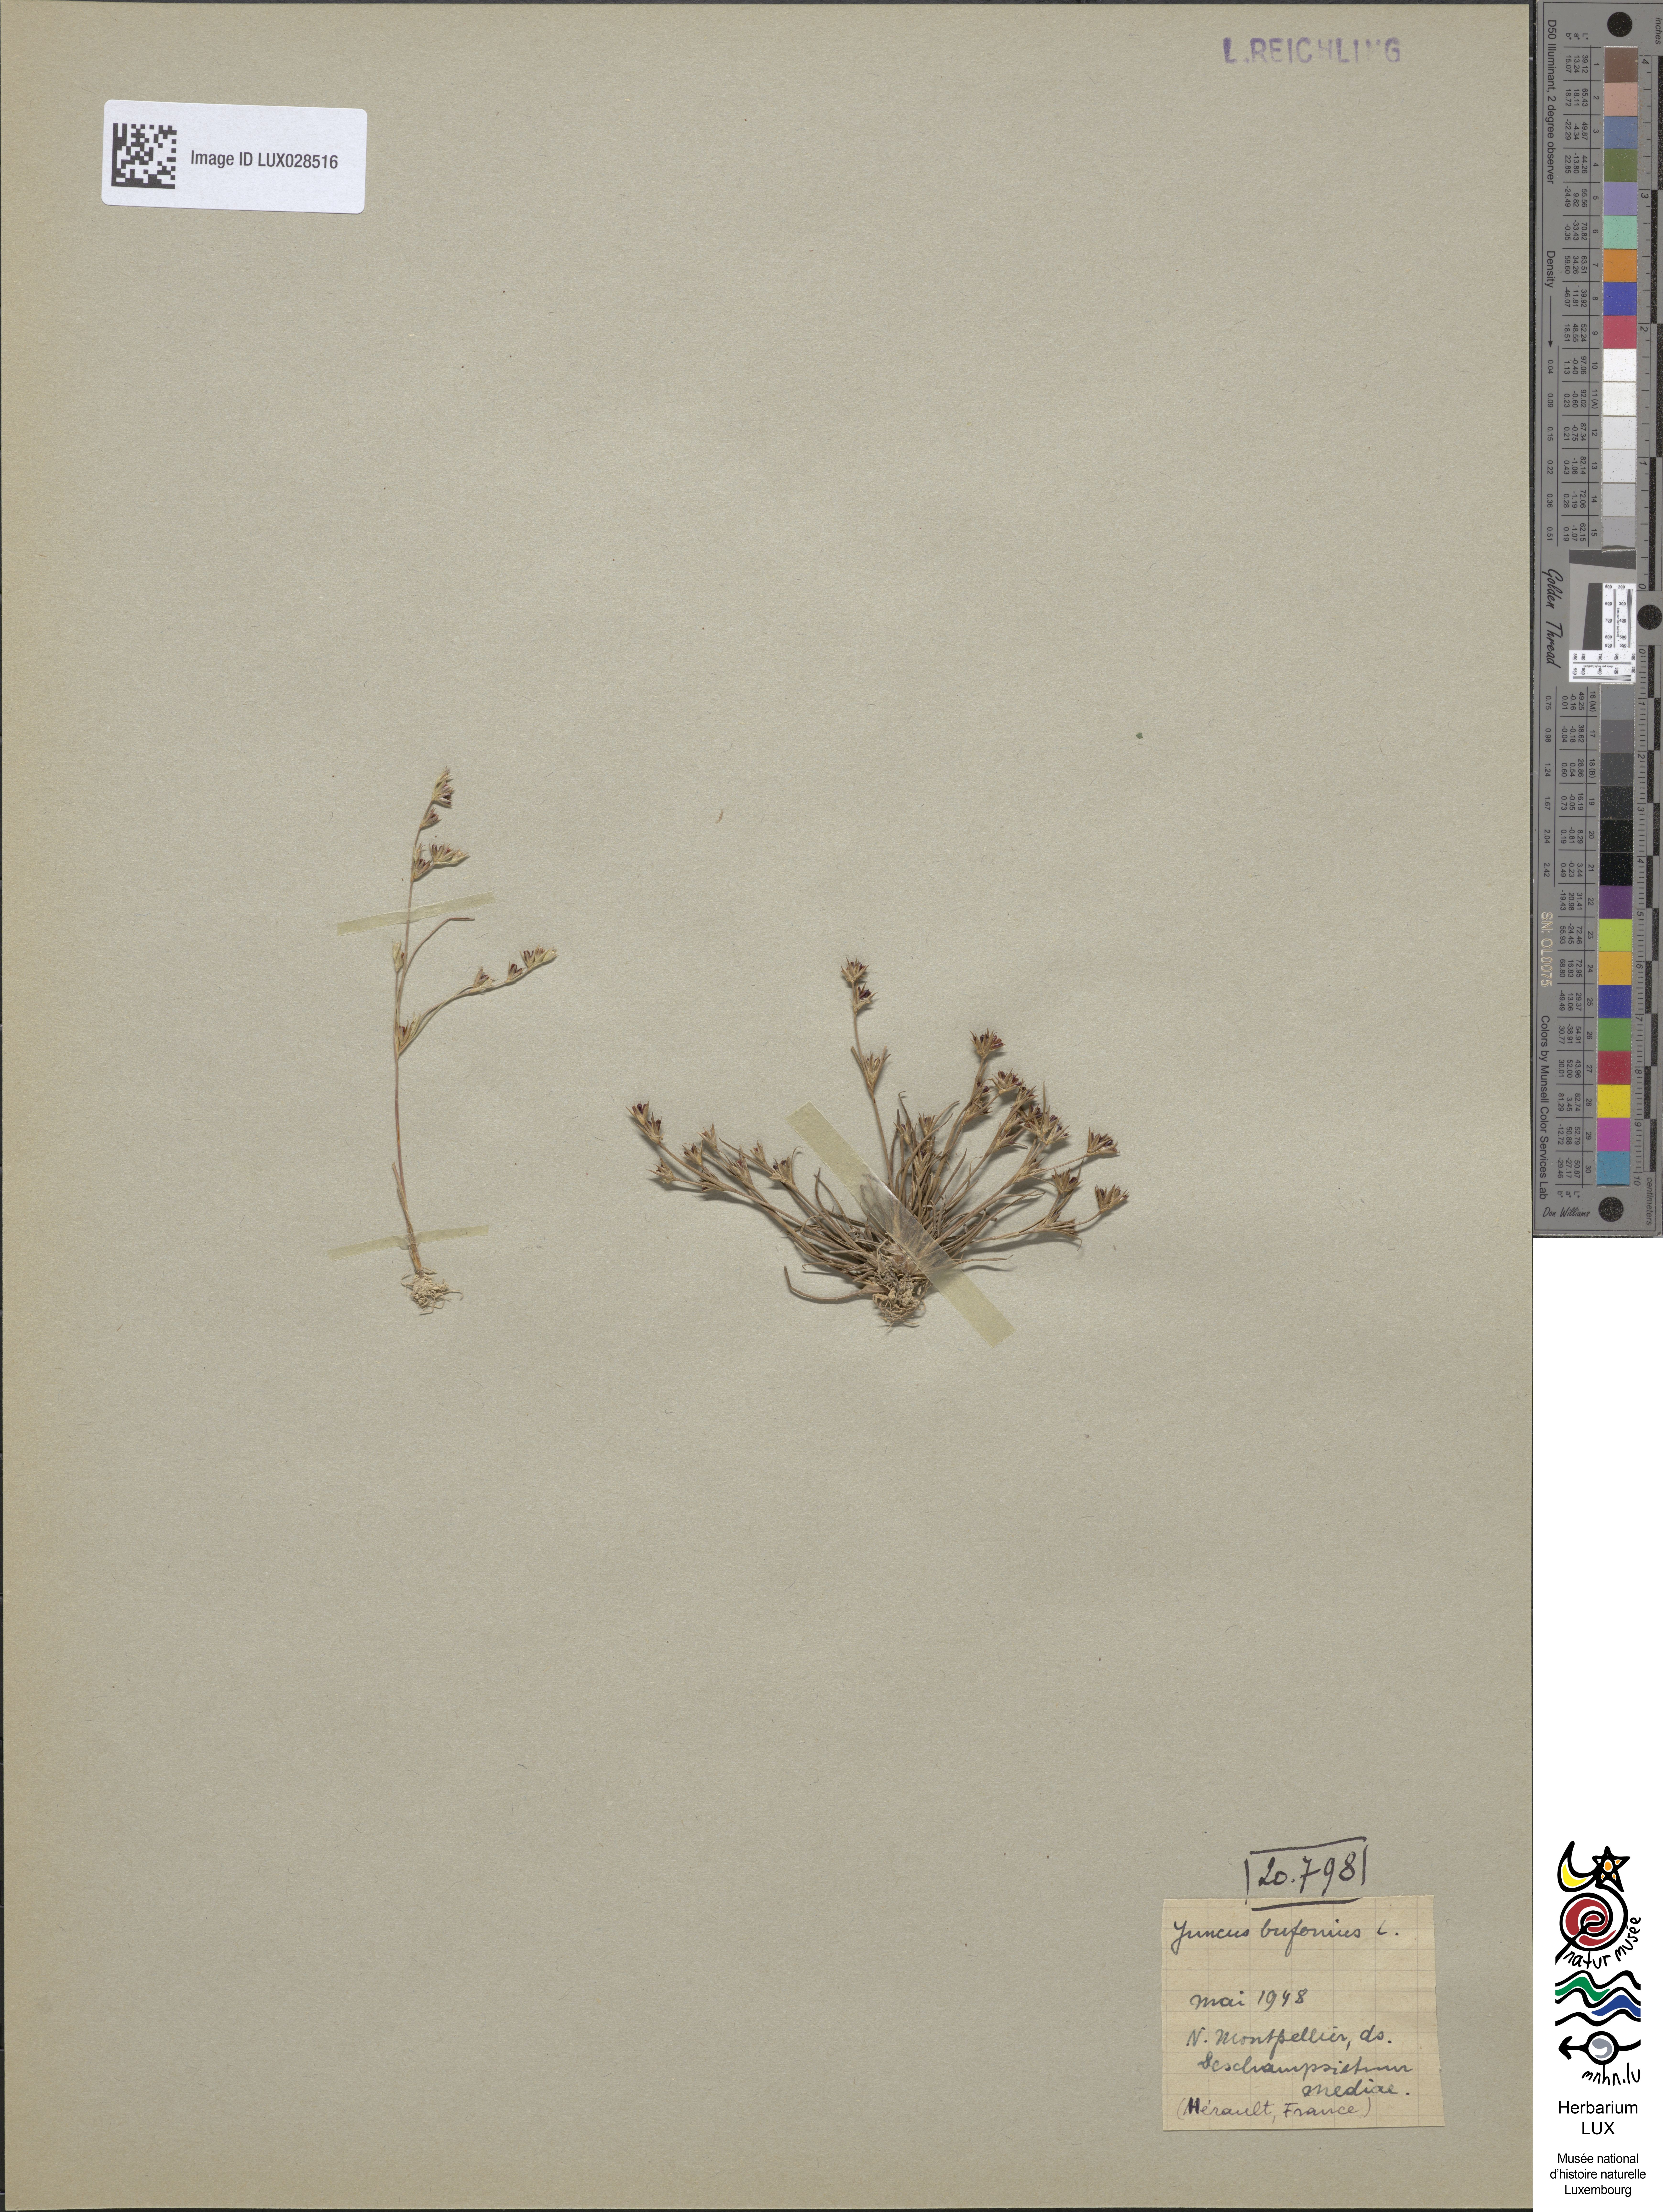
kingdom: Plantae
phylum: Tracheophyta
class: Liliopsida
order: Poales
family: Juncaceae
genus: Juncus
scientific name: Juncus bufonius
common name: Toad rush
